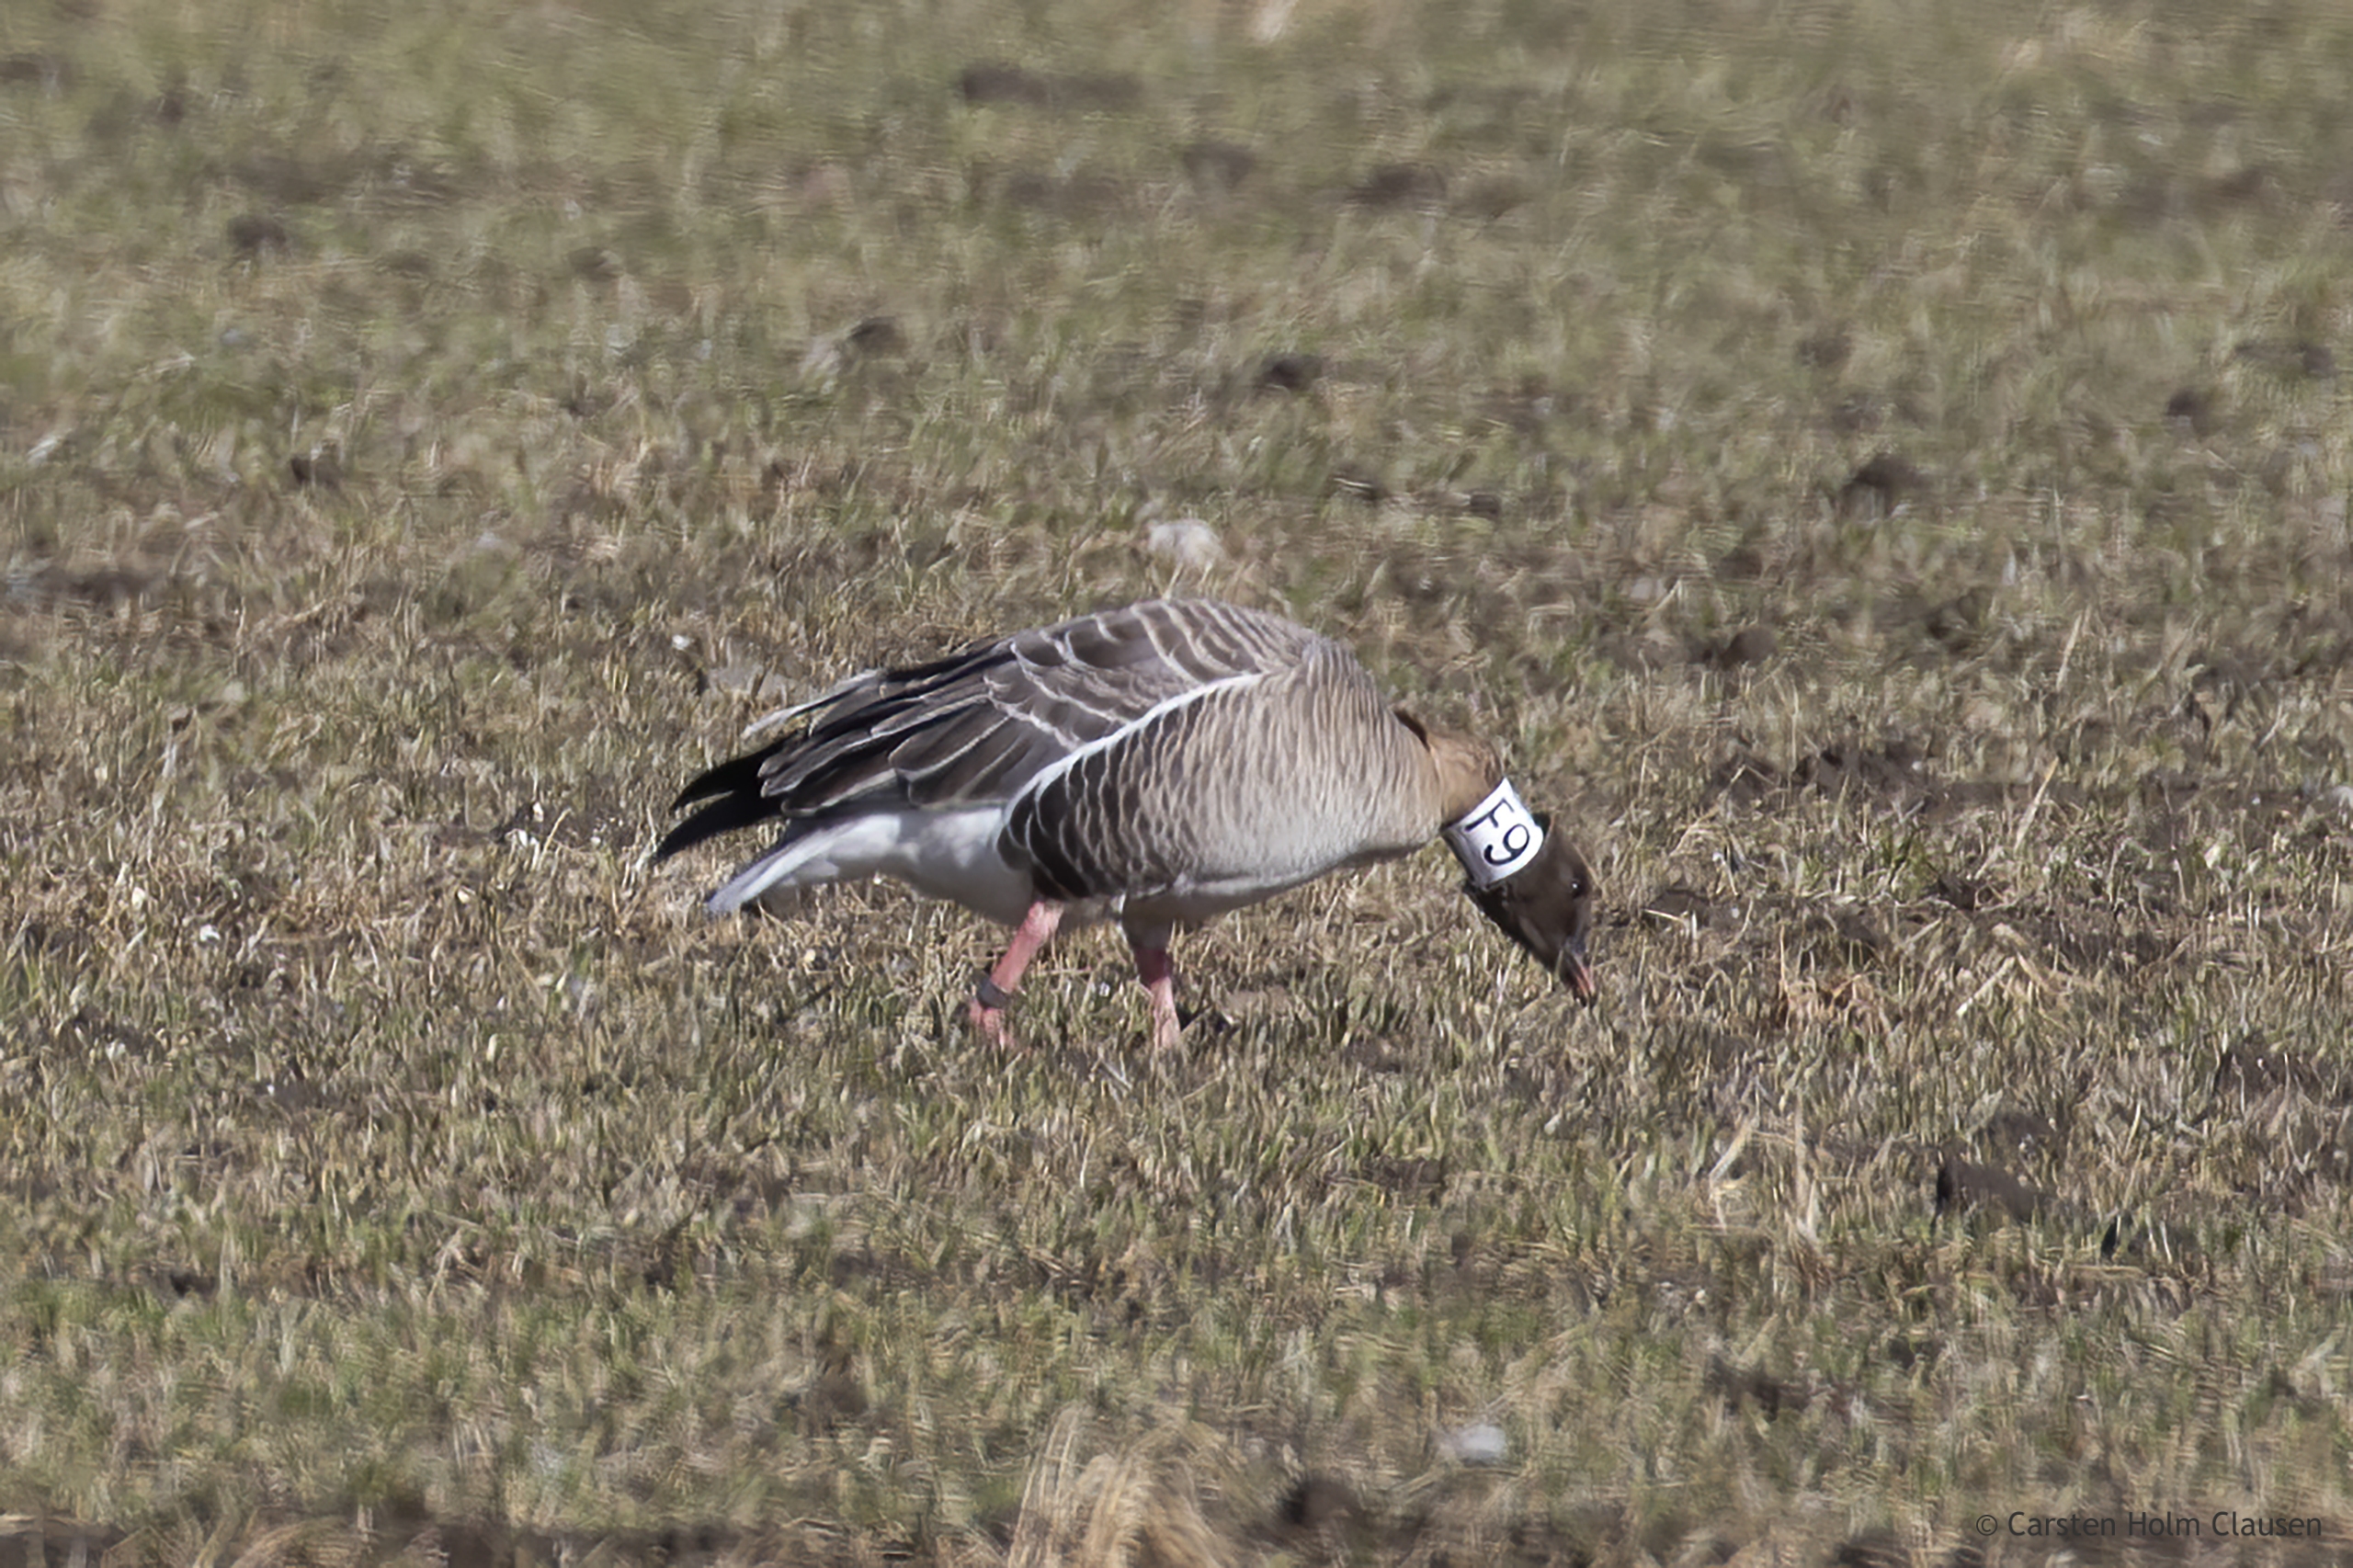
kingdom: Animalia
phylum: Chordata
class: Aves
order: Anseriformes
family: Anatidae
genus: Anser
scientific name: Anser brachyrhynchus
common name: Kortnæbbet gås
